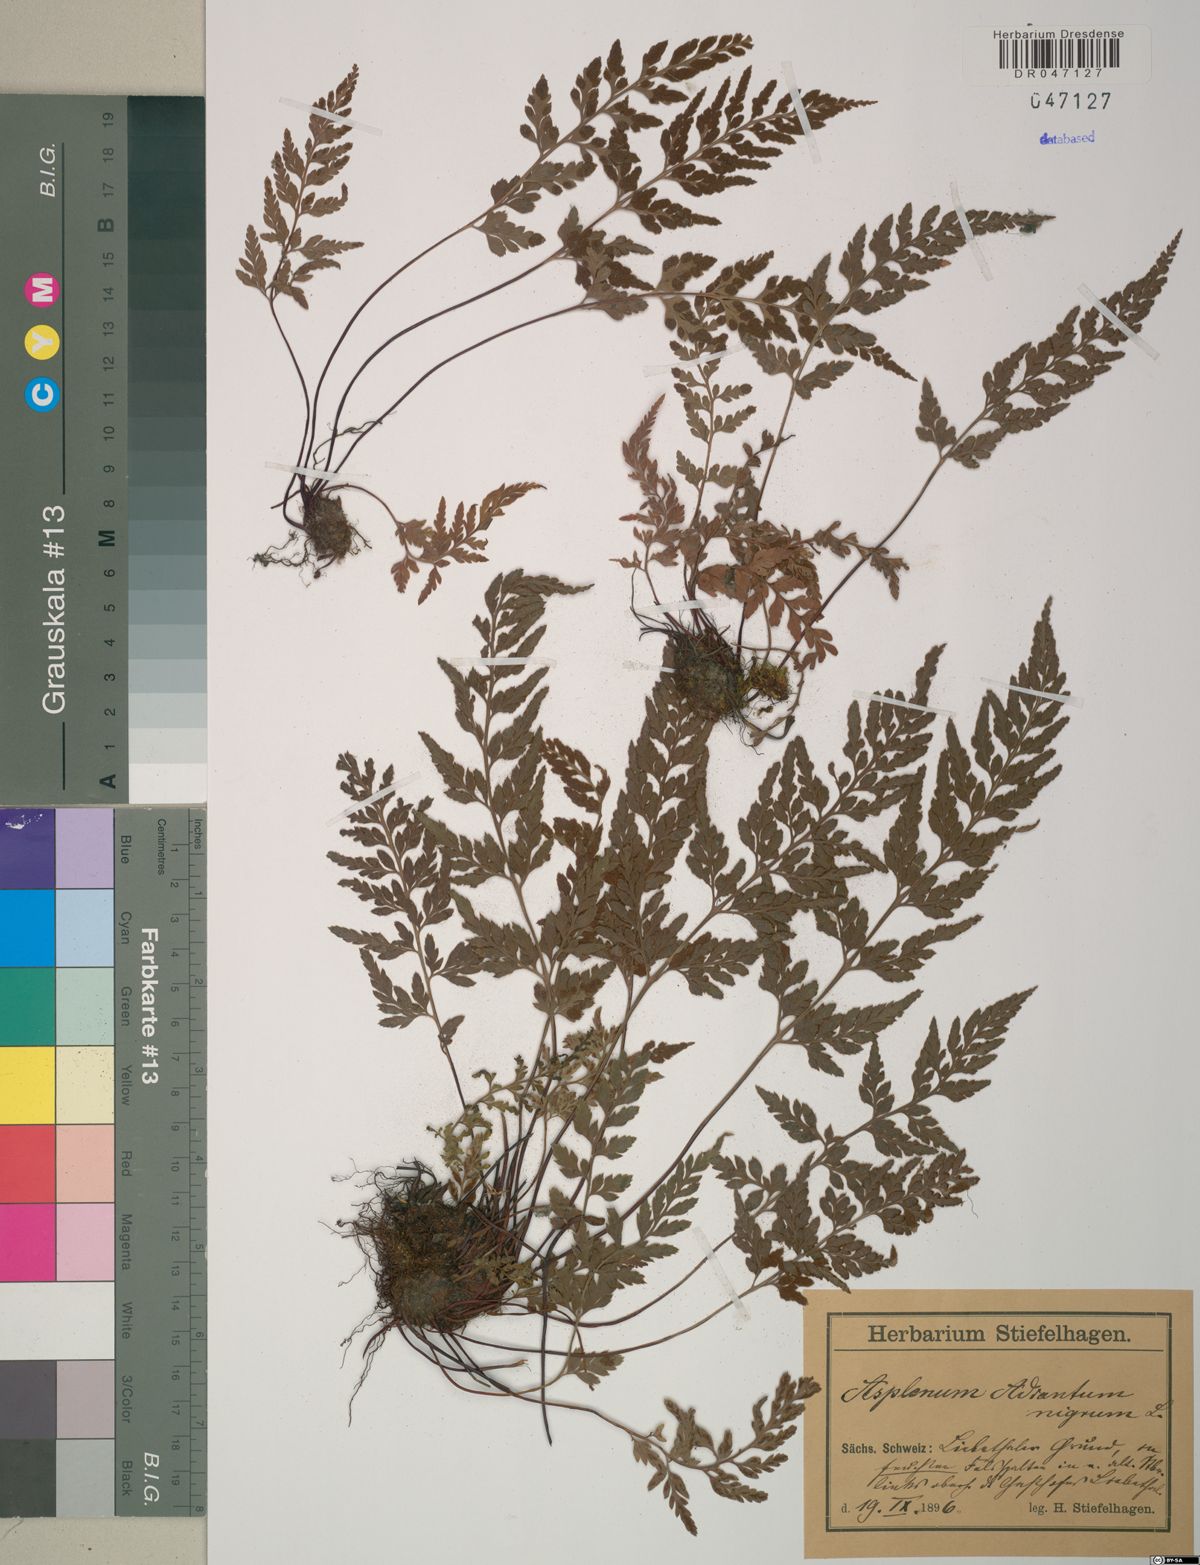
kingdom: Plantae
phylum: Tracheophyta
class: Polypodiopsida
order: Polypodiales
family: Aspleniaceae
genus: Asplenium
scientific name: Asplenium adiantum-nigrum
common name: Black spleenwort
